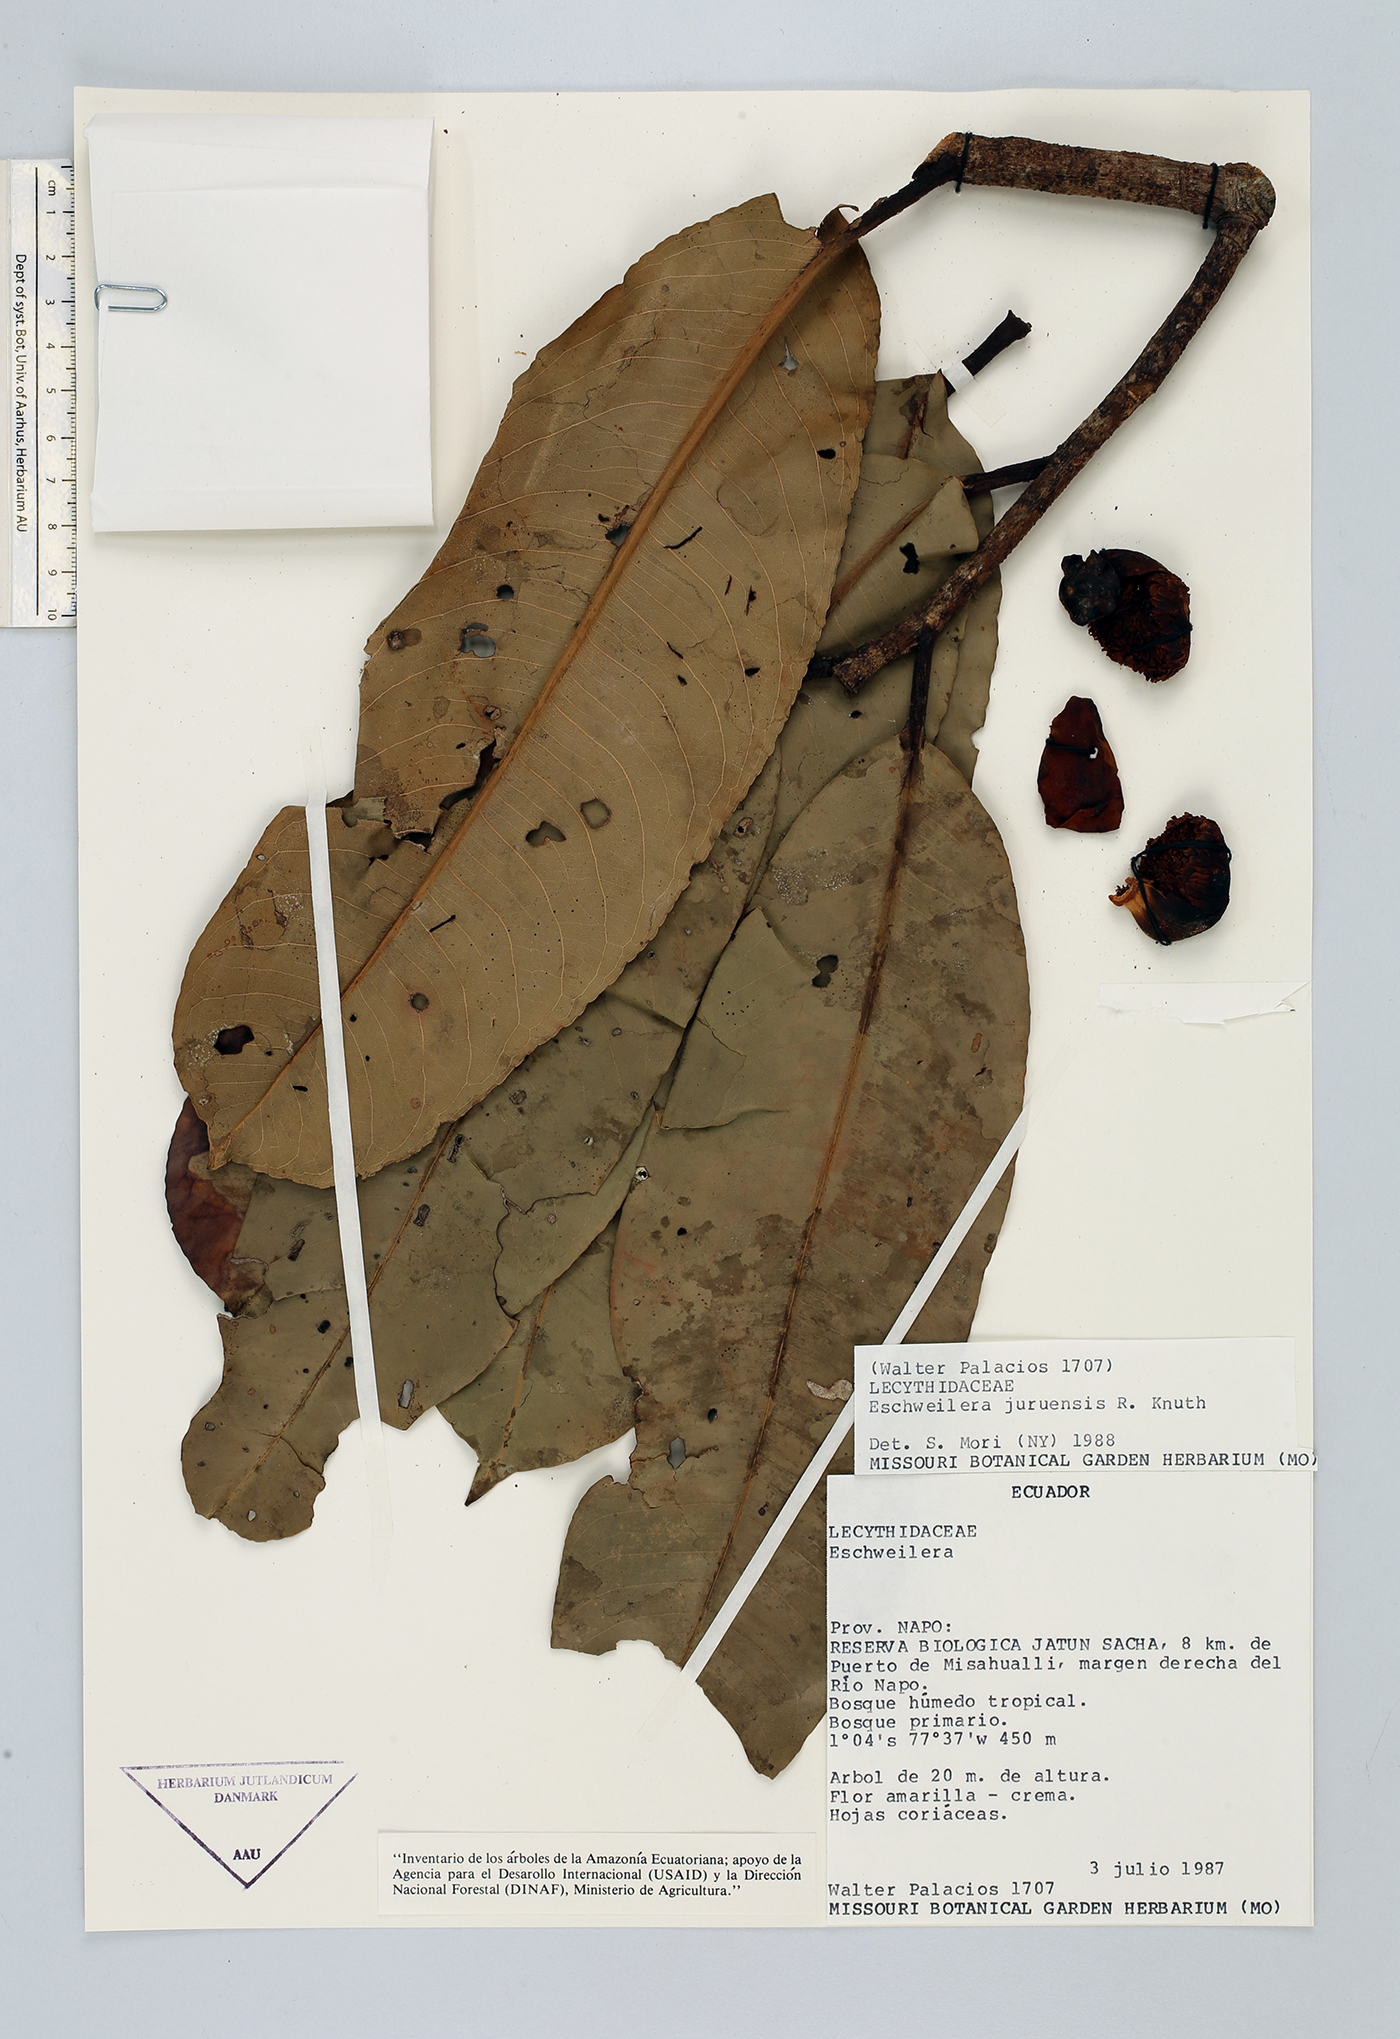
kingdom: Plantae
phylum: Tracheophyta
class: Magnoliopsida
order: Ericales
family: Lecythidaceae
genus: Eschweilera
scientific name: Eschweilera juruensis
